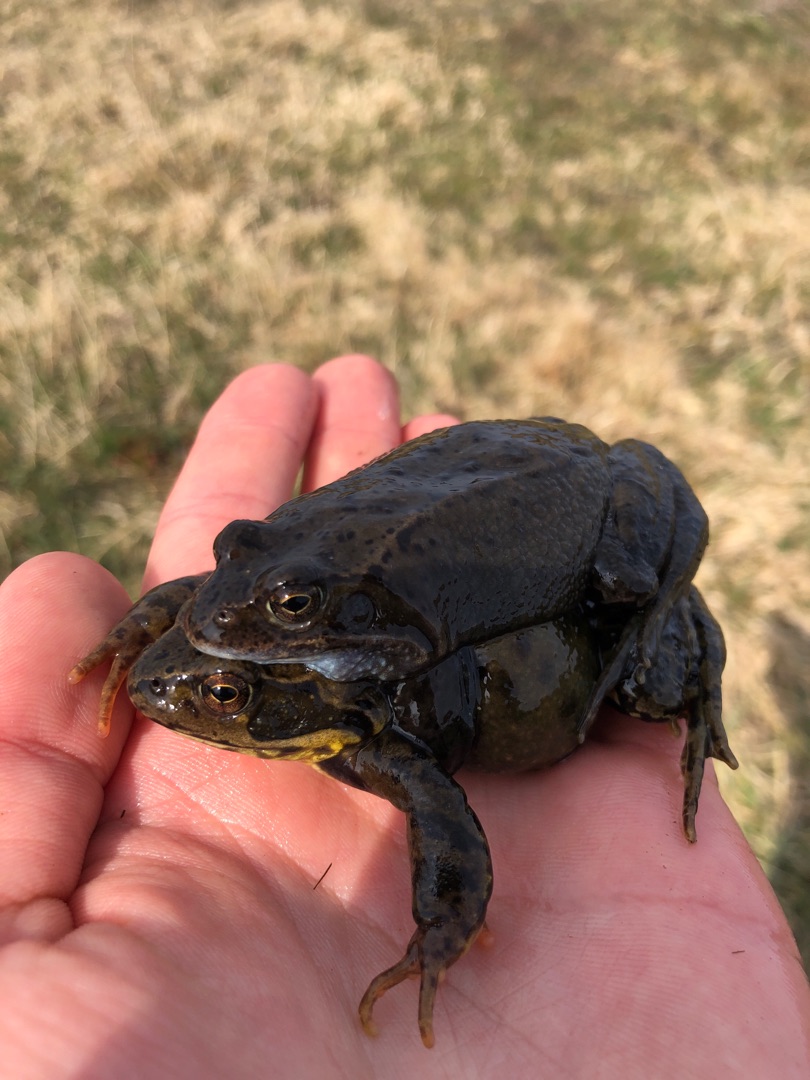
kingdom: Animalia
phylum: Chordata
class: Amphibia
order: Anura
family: Ranidae
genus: Rana
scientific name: Rana temporaria
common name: Butsnudet frø
